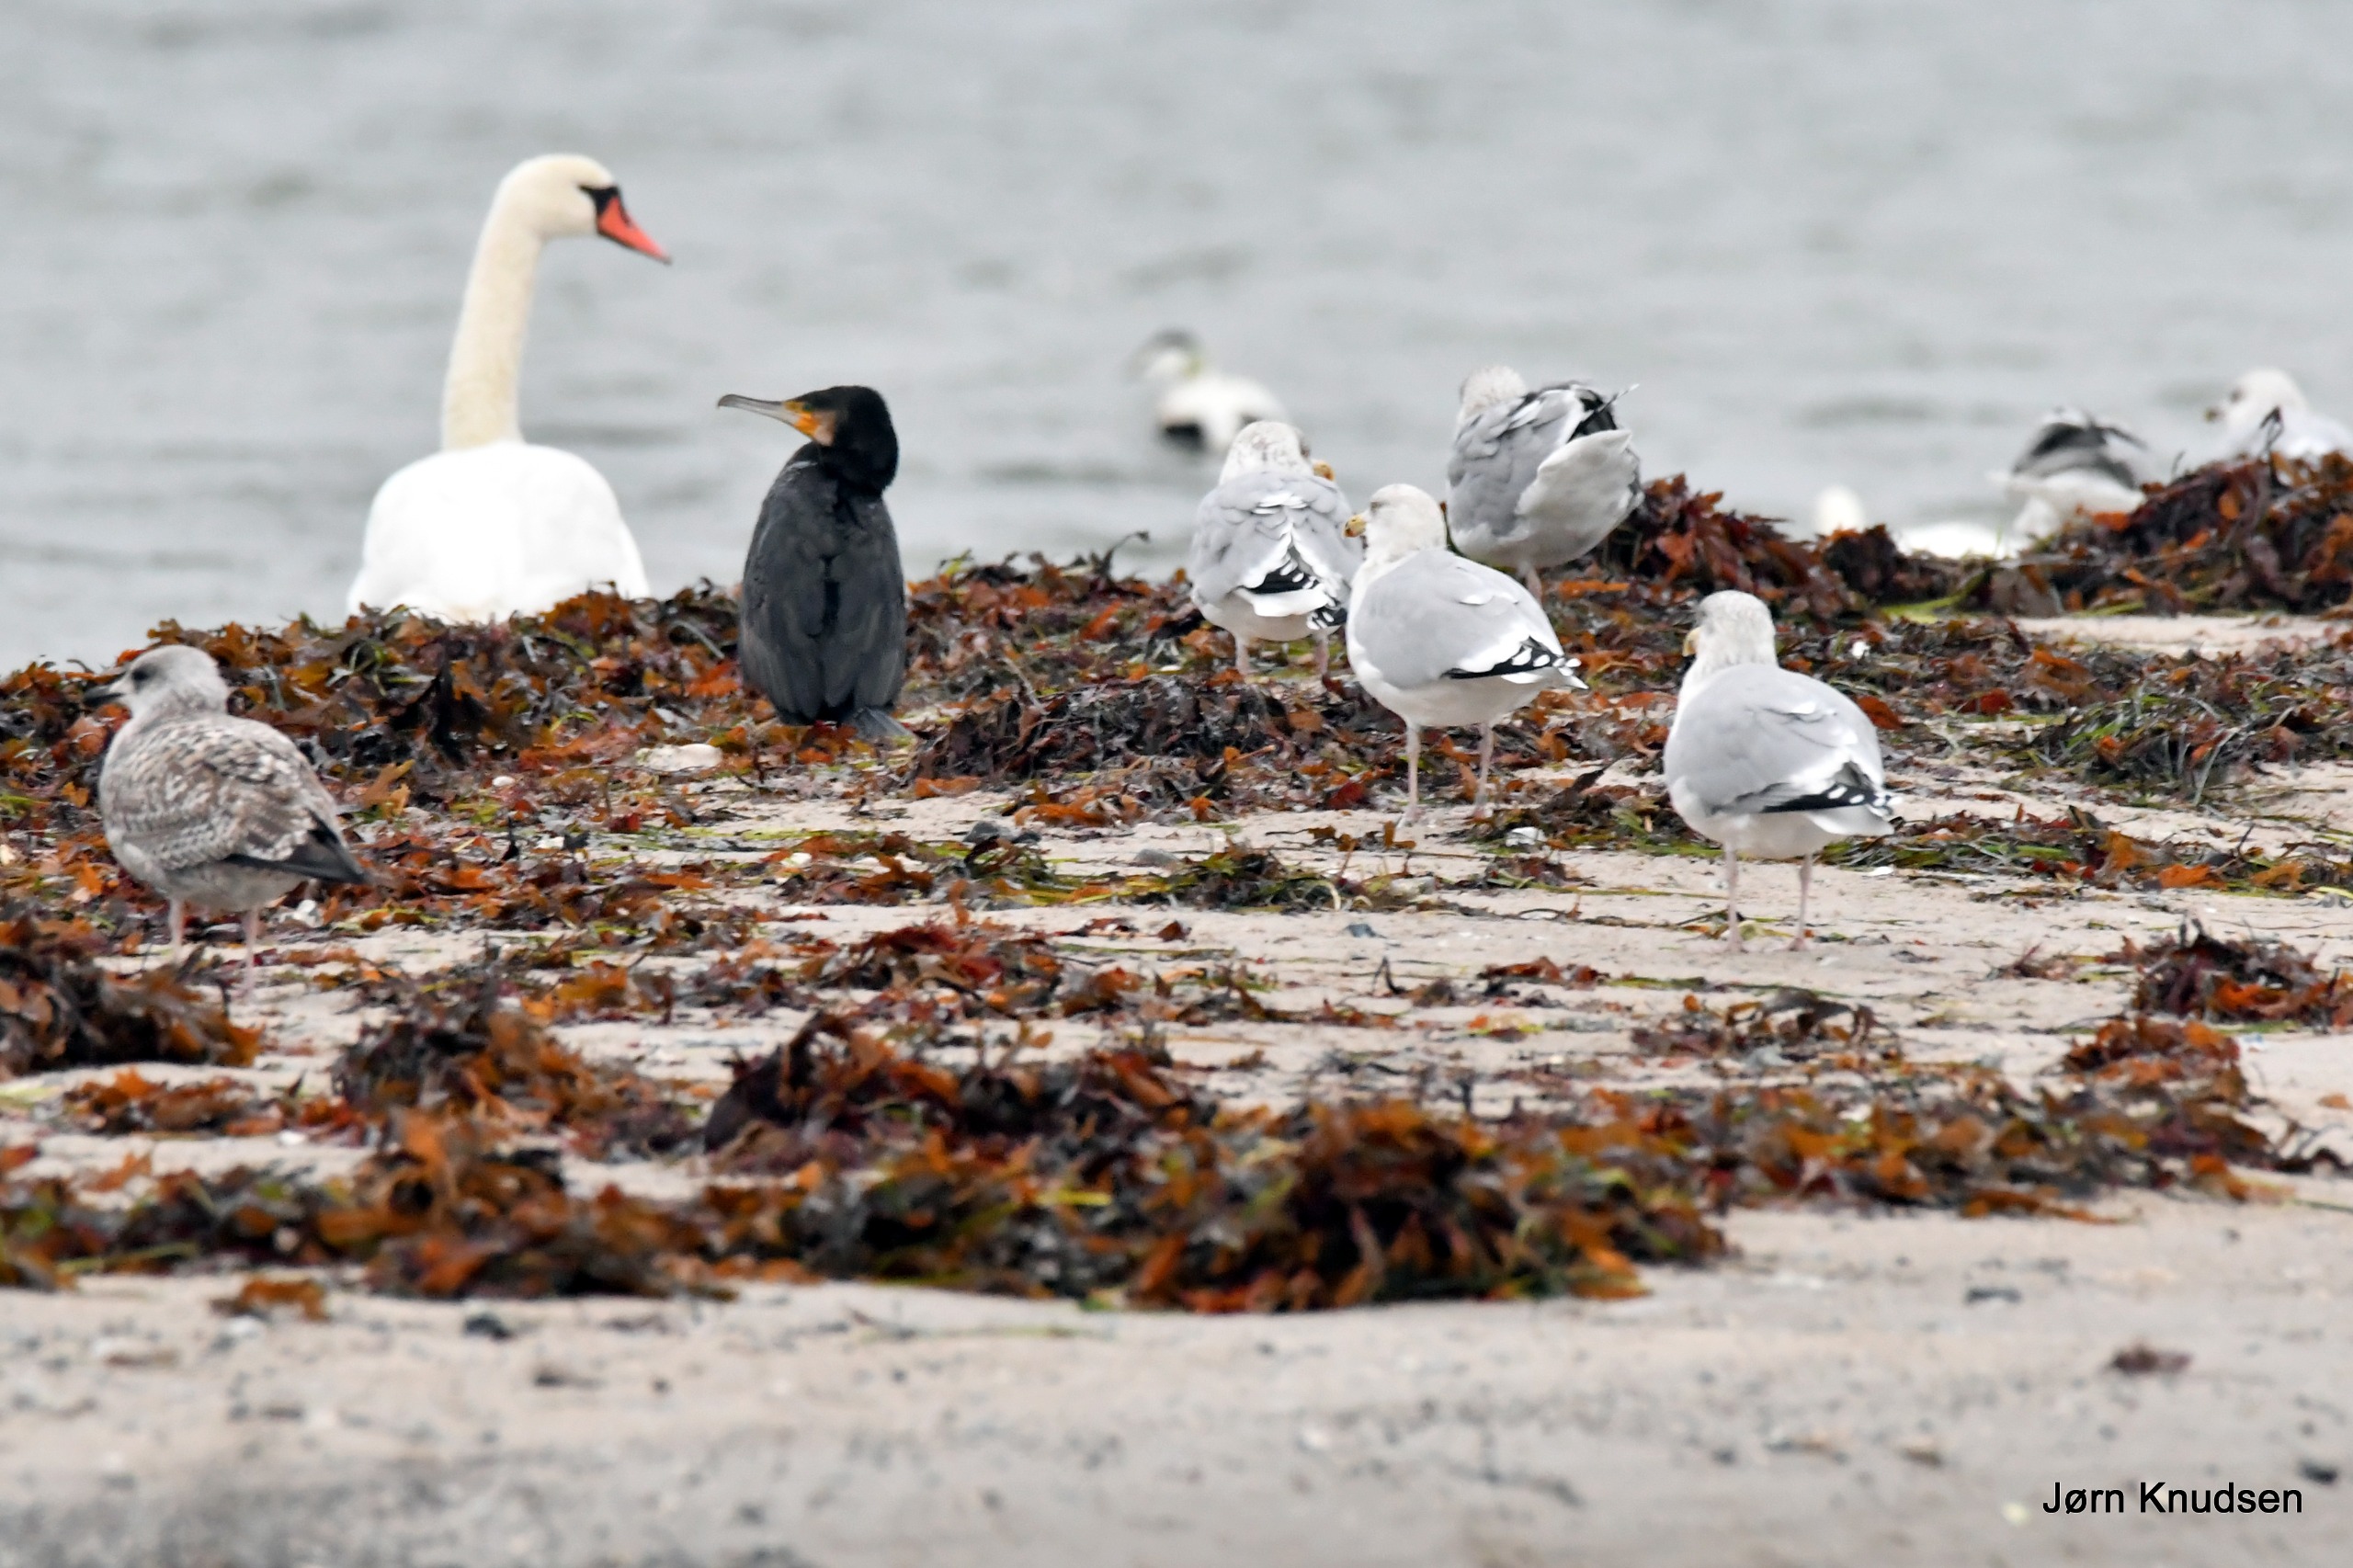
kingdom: Animalia
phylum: Chordata
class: Aves
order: Suliformes
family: Phalacrocoracidae
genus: Phalacrocorax
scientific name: Phalacrocorax carbo
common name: Skarv
